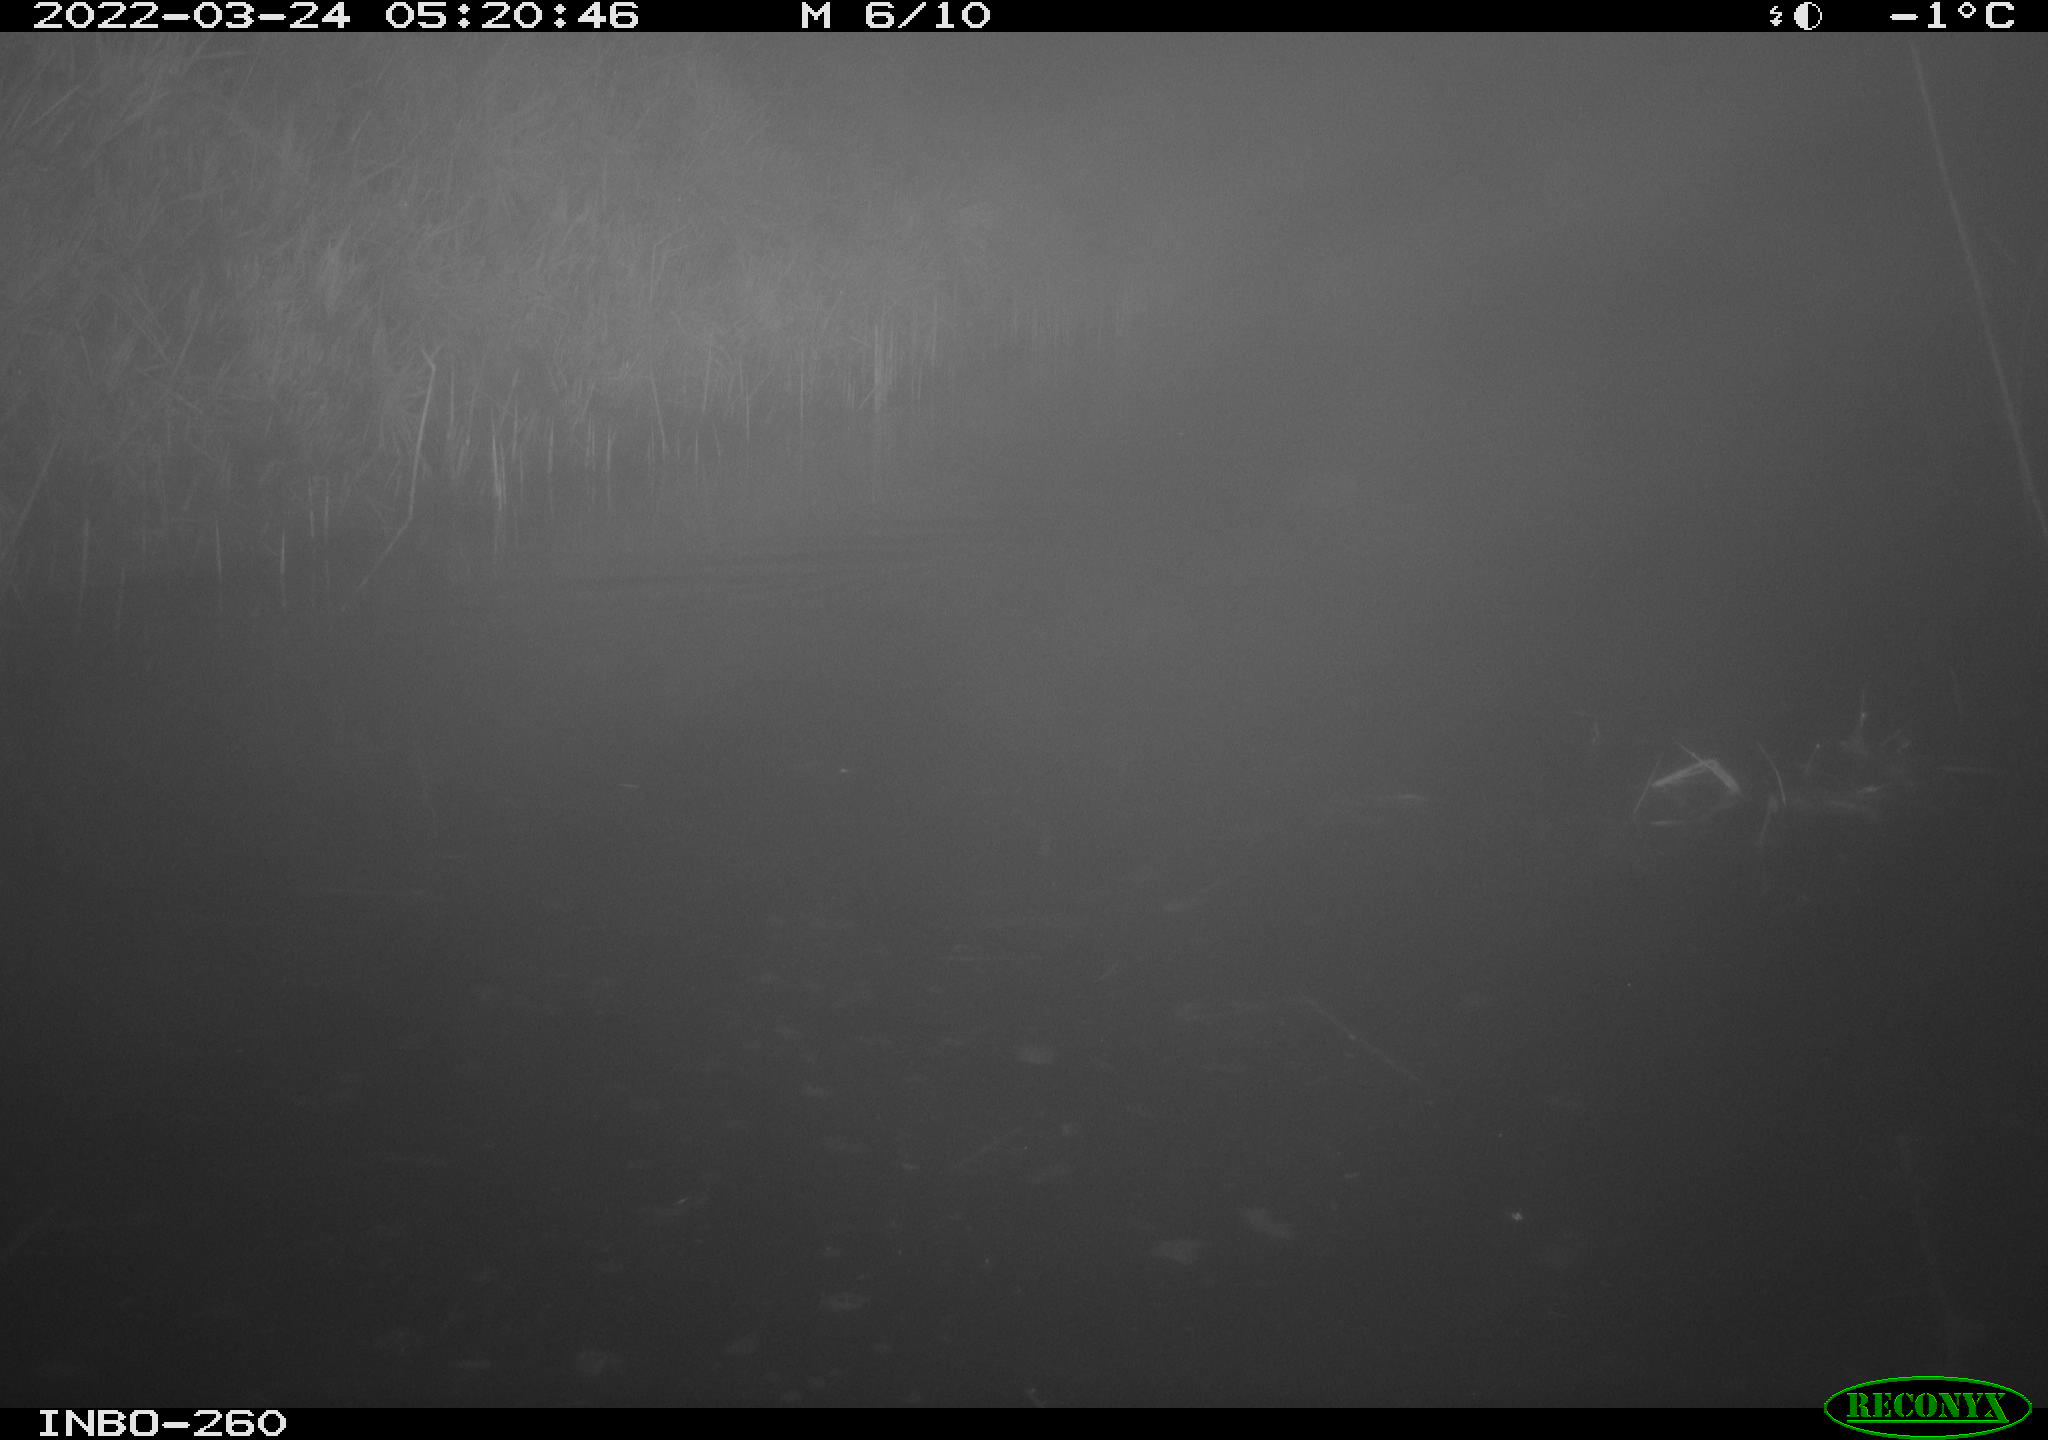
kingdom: Animalia
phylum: Chordata
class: Mammalia
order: Rodentia
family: Cricetidae
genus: Ondatra
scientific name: Ondatra zibethicus
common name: Muskrat
